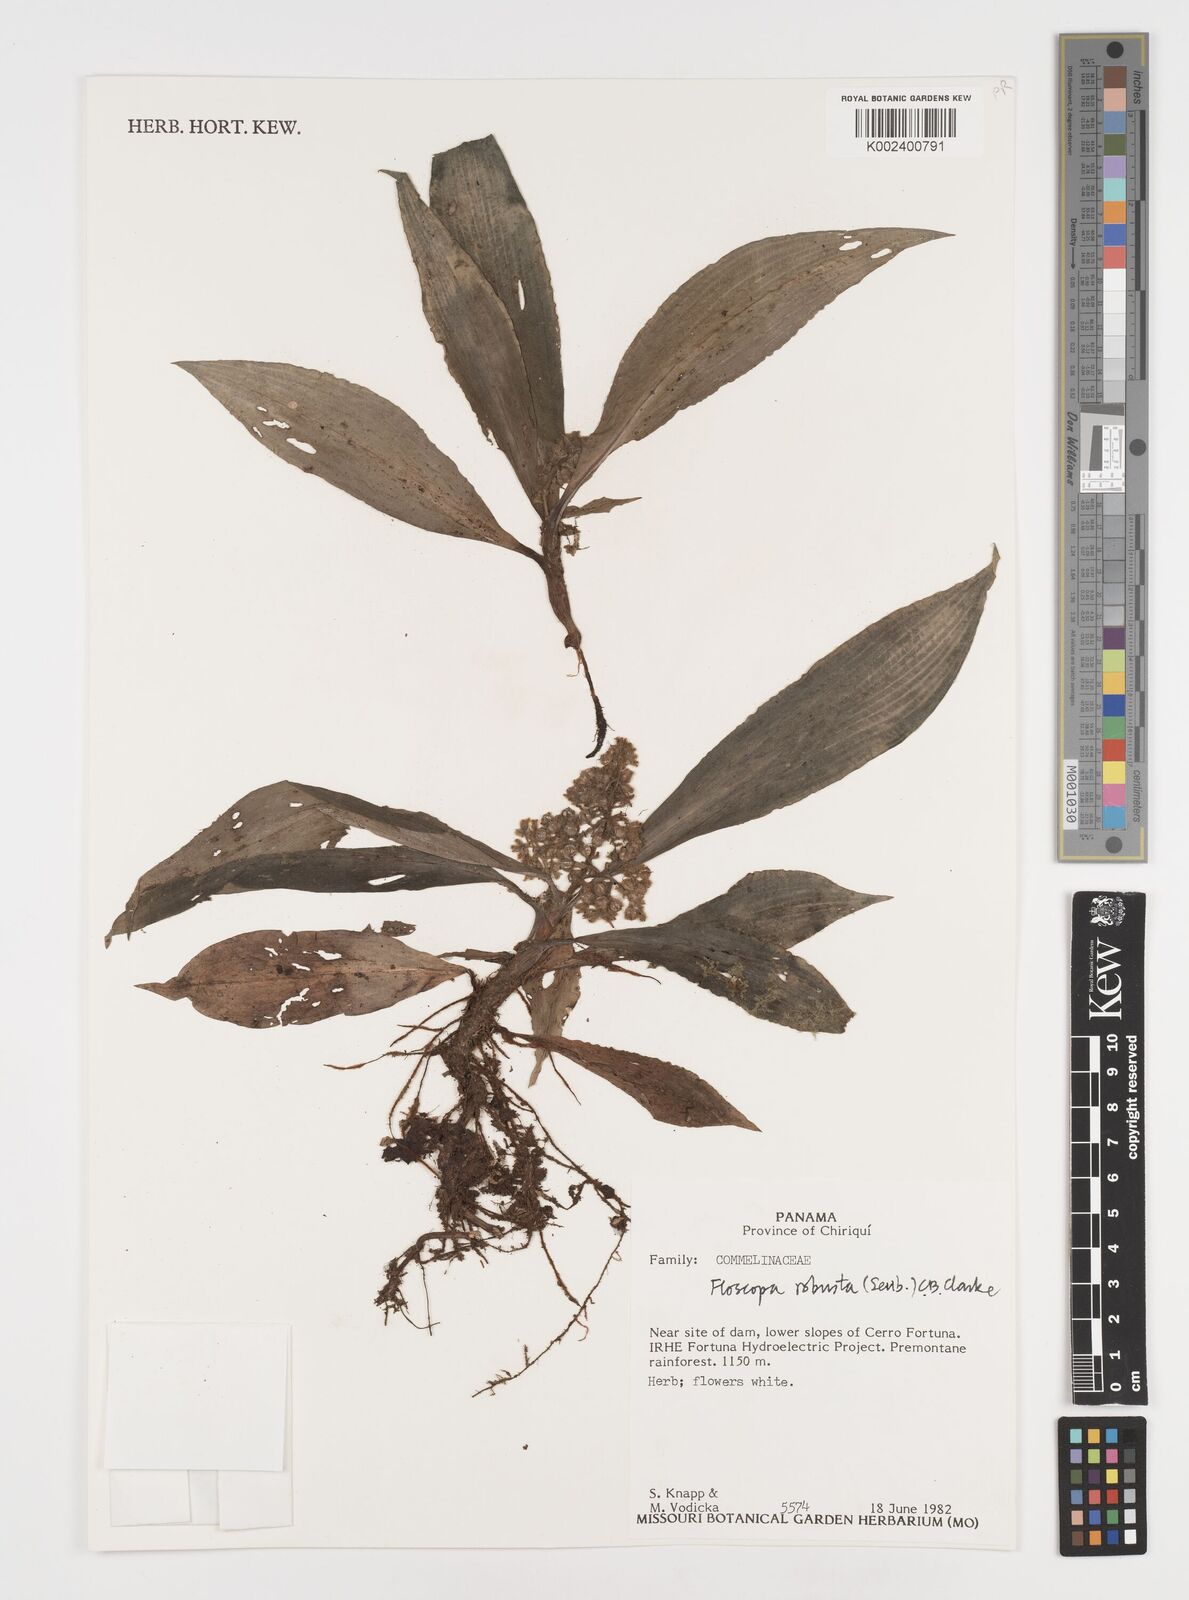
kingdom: Plantae
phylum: Tracheophyta
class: Liliopsida
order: Commelinales
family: Commelinaceae
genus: Floscopa
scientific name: Floscopa robusta
